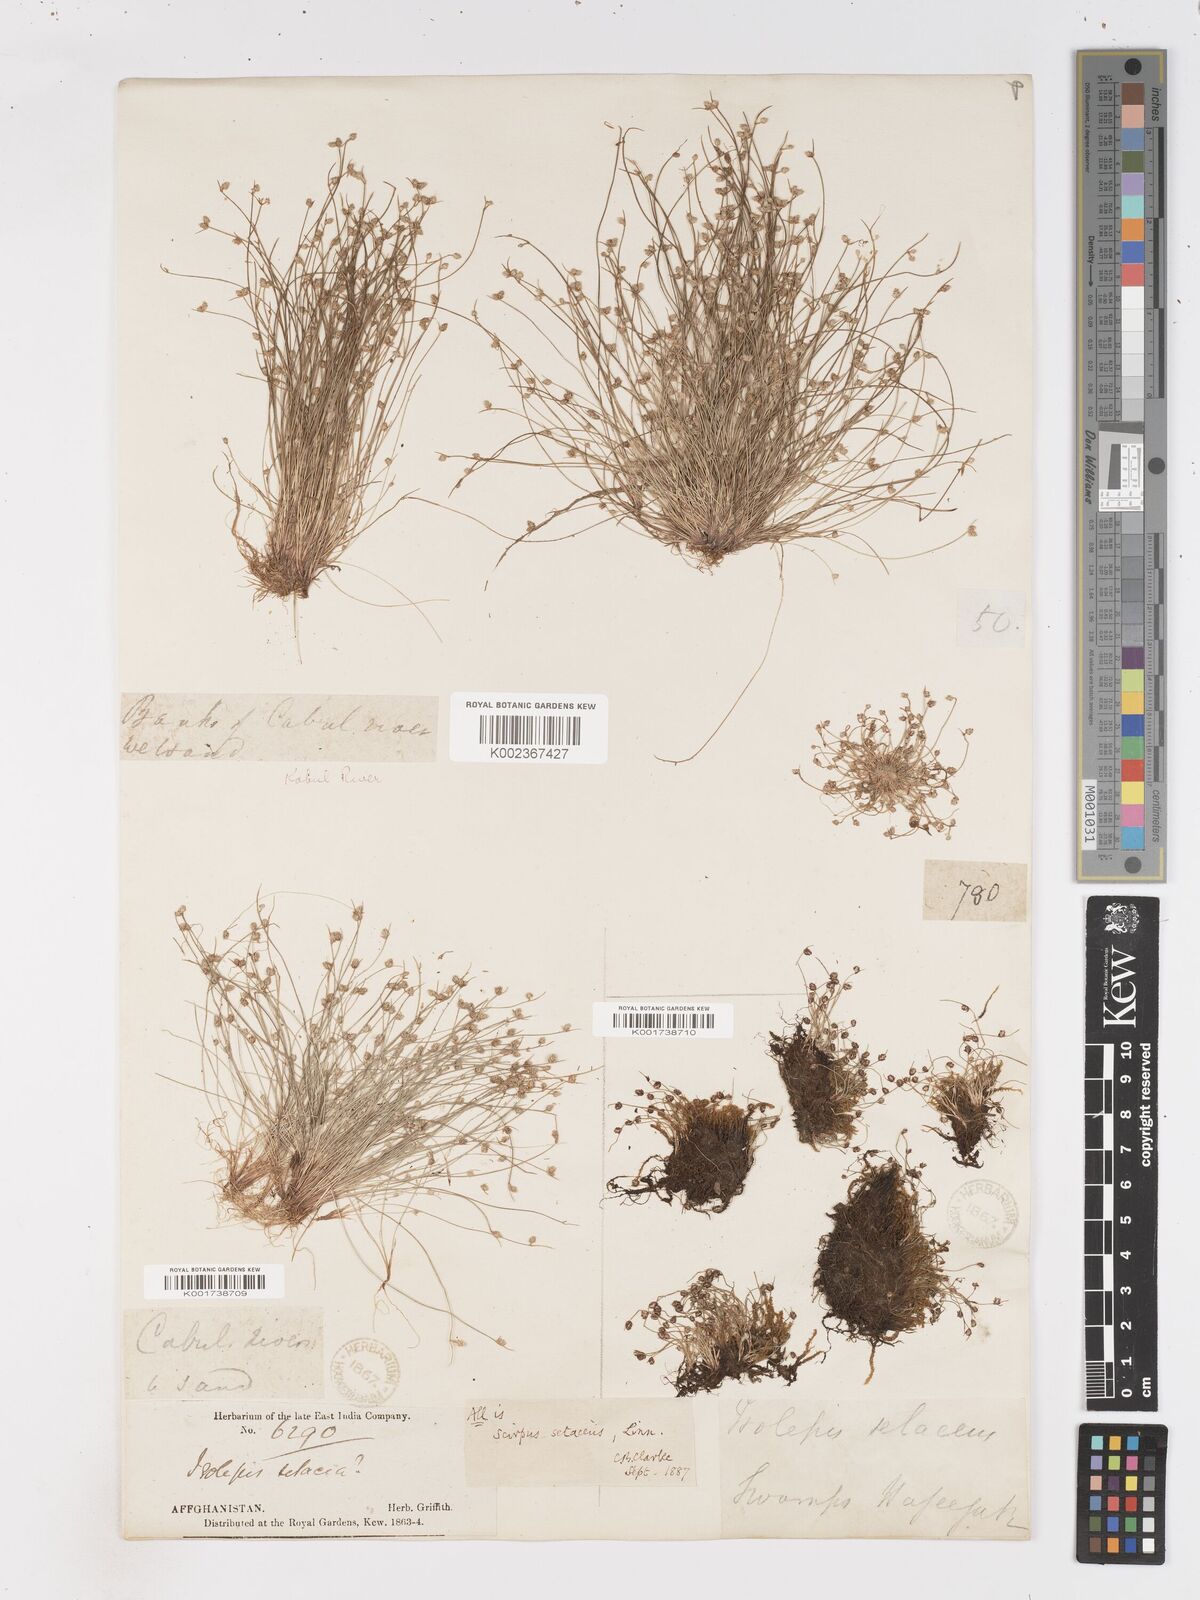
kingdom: Plantae
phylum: Tracheophyta
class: Liliopsida
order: Poales
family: Cyperaceae
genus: Isolepis
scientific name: Isolepis setacea
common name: Bristle club-rush
